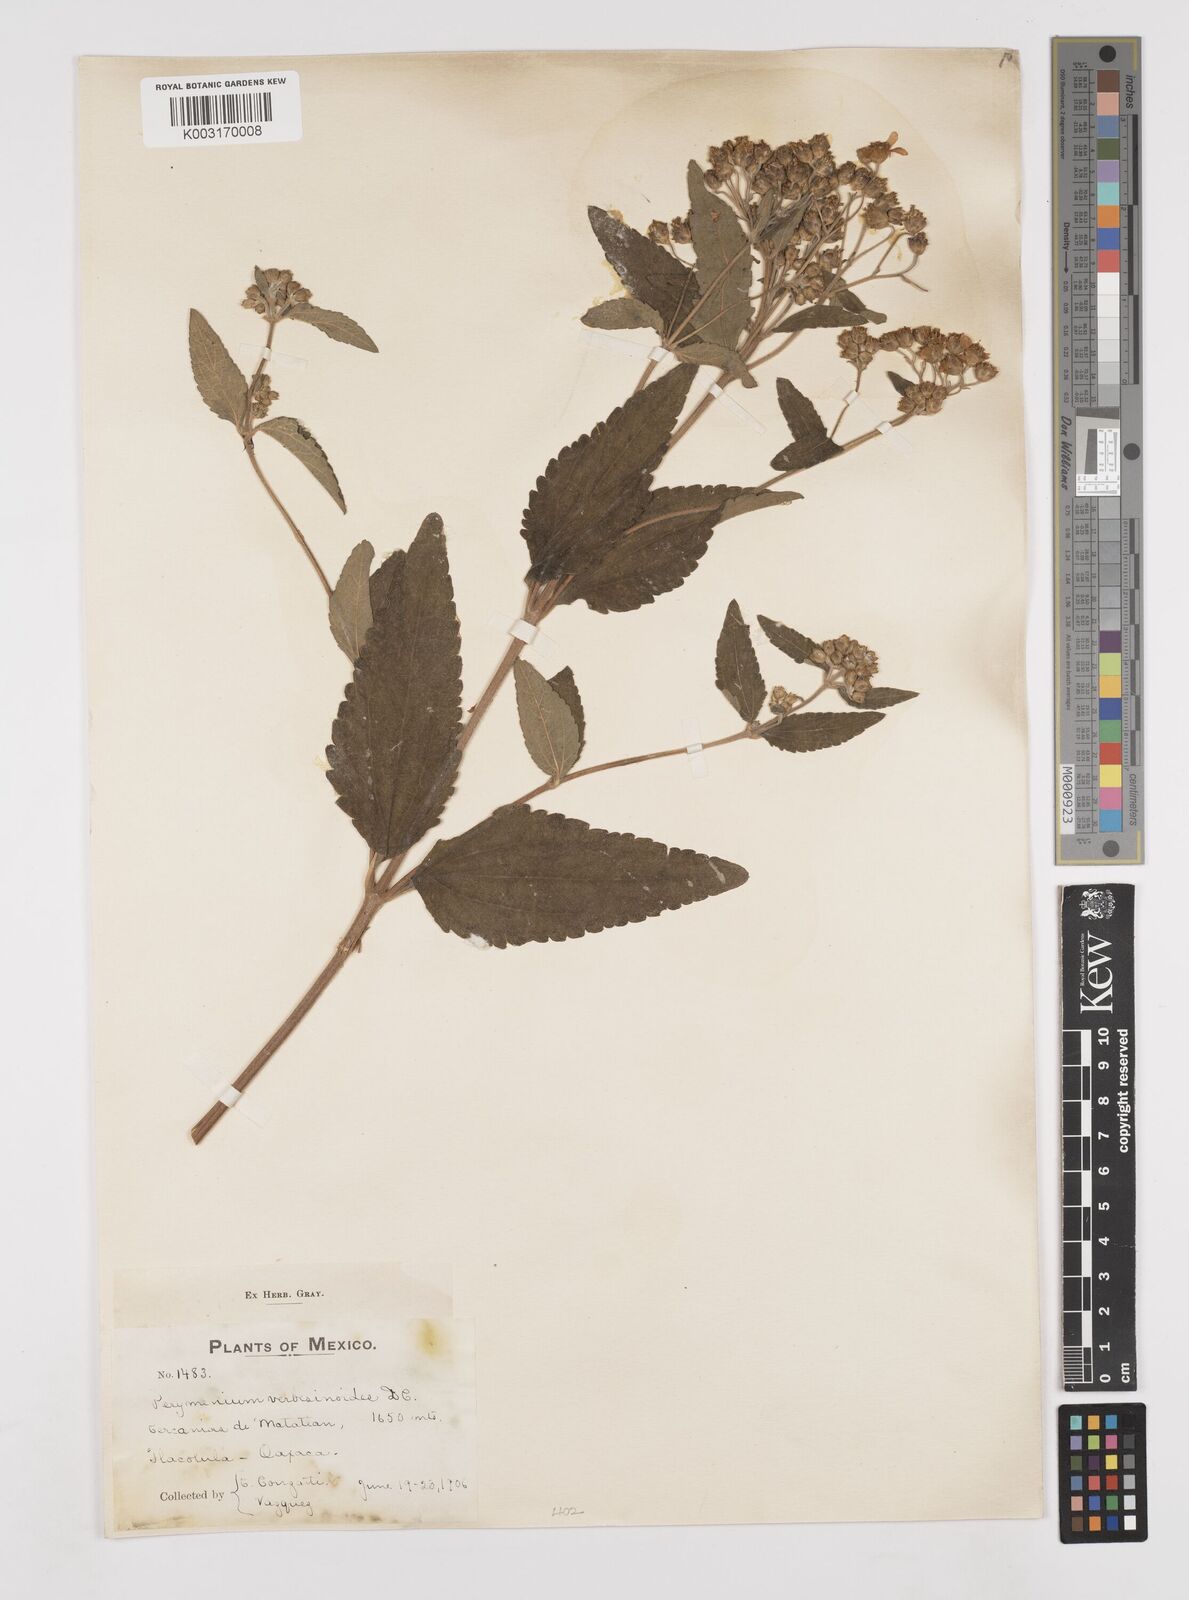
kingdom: Plantae
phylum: Tracheophyta
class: Magnoliopsida
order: Asterales
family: Asteraceae
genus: Perymenium
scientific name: Perymenium mendezii
